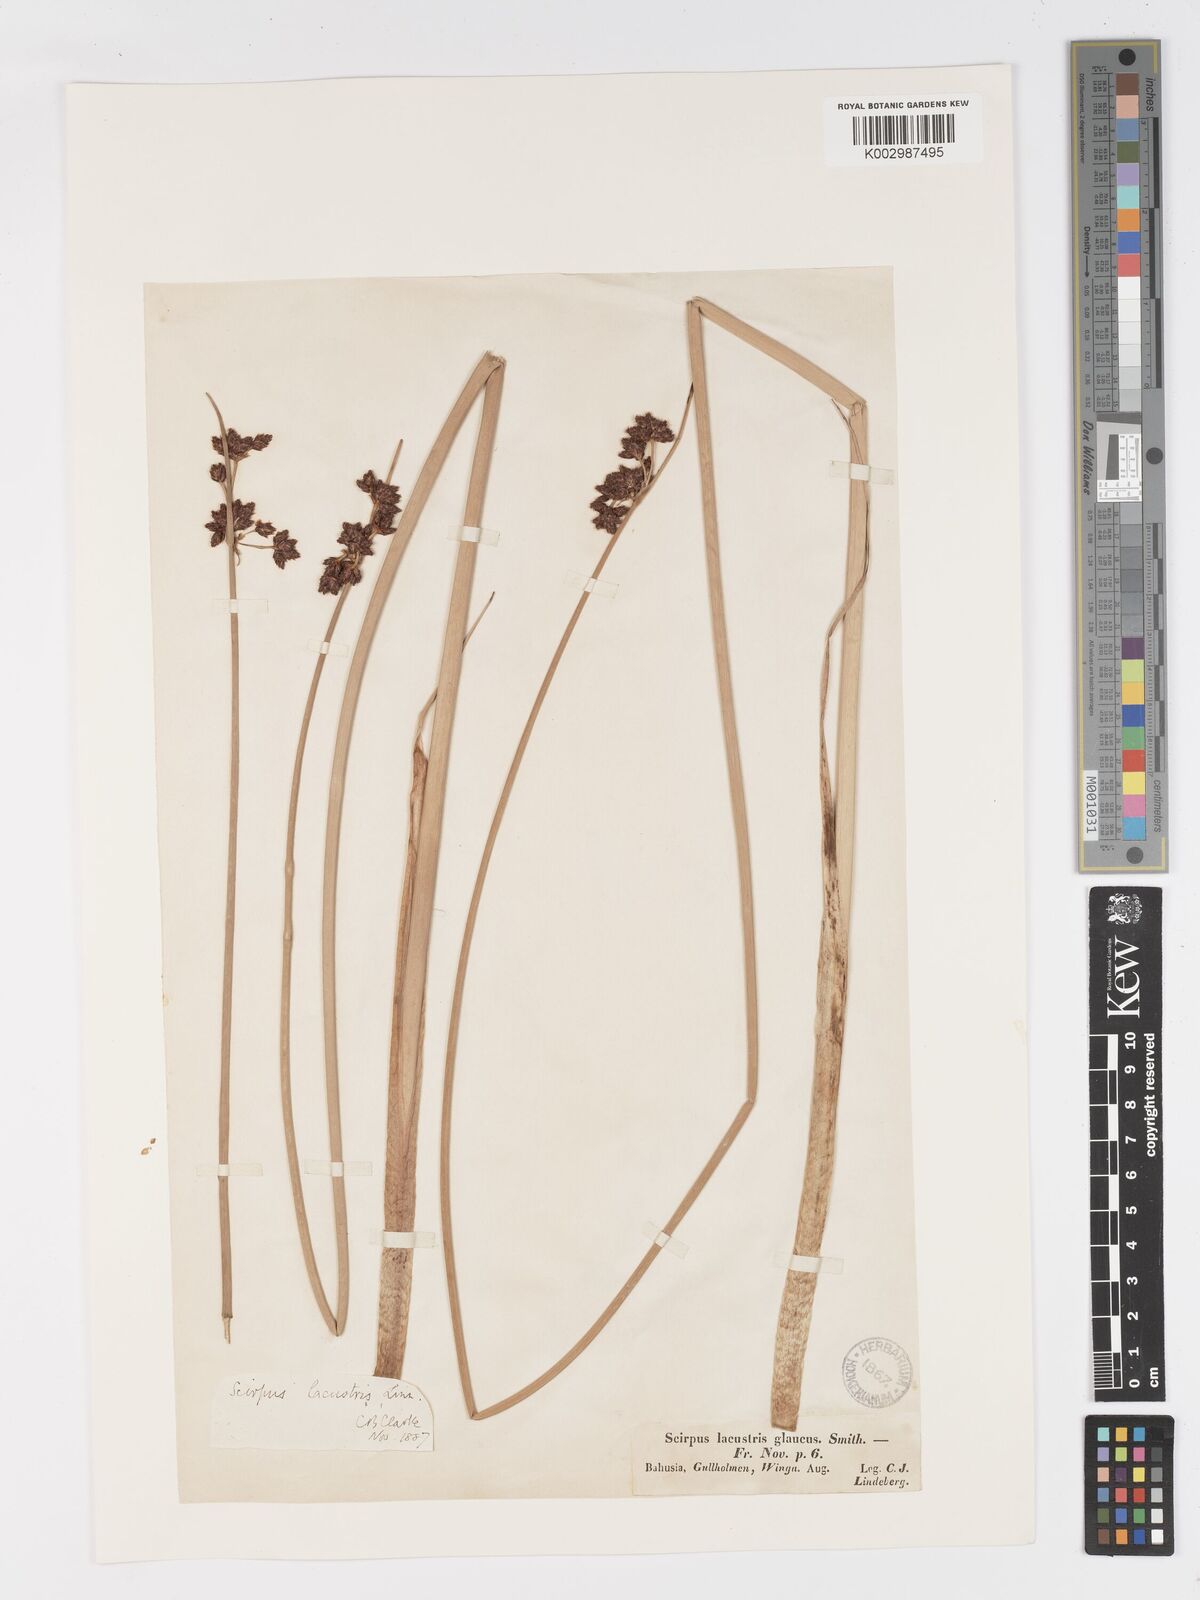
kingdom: Plantae
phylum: Tracheophyta
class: Liliopsida
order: Poales
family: Cyperaceae
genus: Schoenoplectus
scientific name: Schoenoplectus lacustris
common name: Common club-rush
